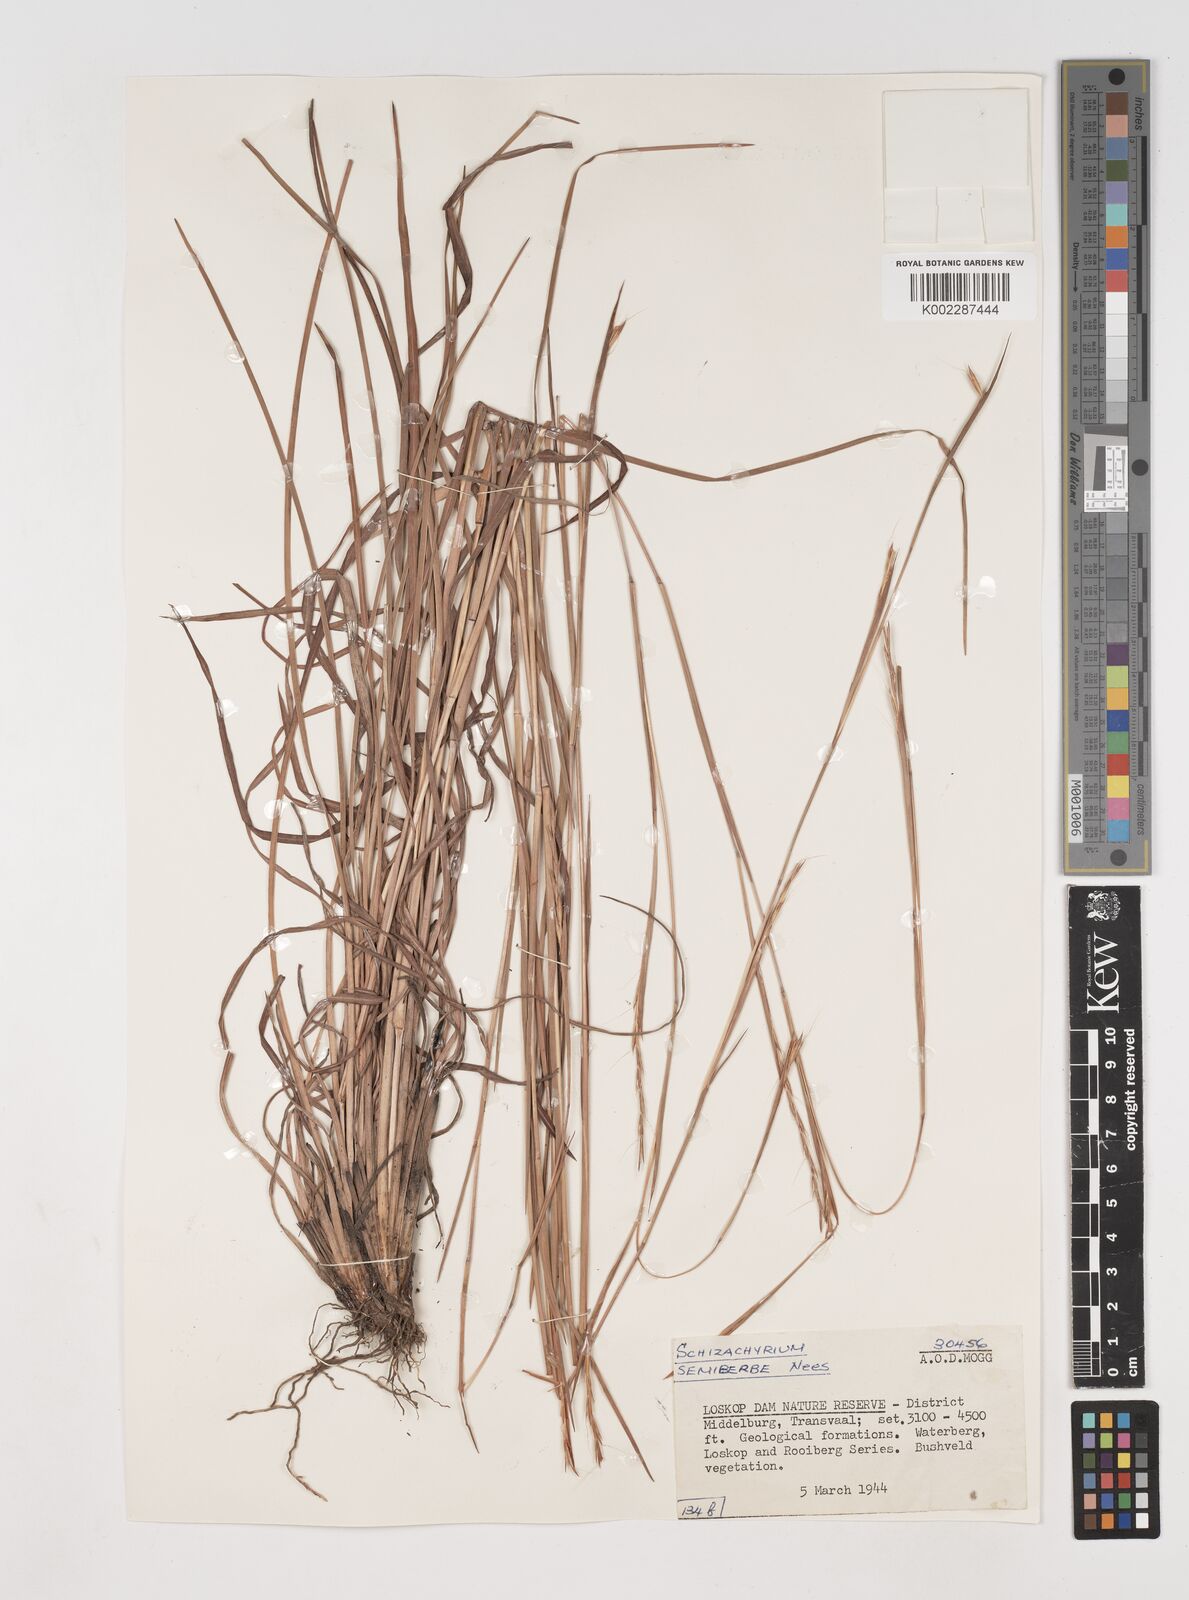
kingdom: Plantae
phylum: Tracheophyta
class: Liliopsida
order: Poales
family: Poaceae
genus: Schizachyrium
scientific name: Schizachyrium sanguineum
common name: Crimson bluestem
